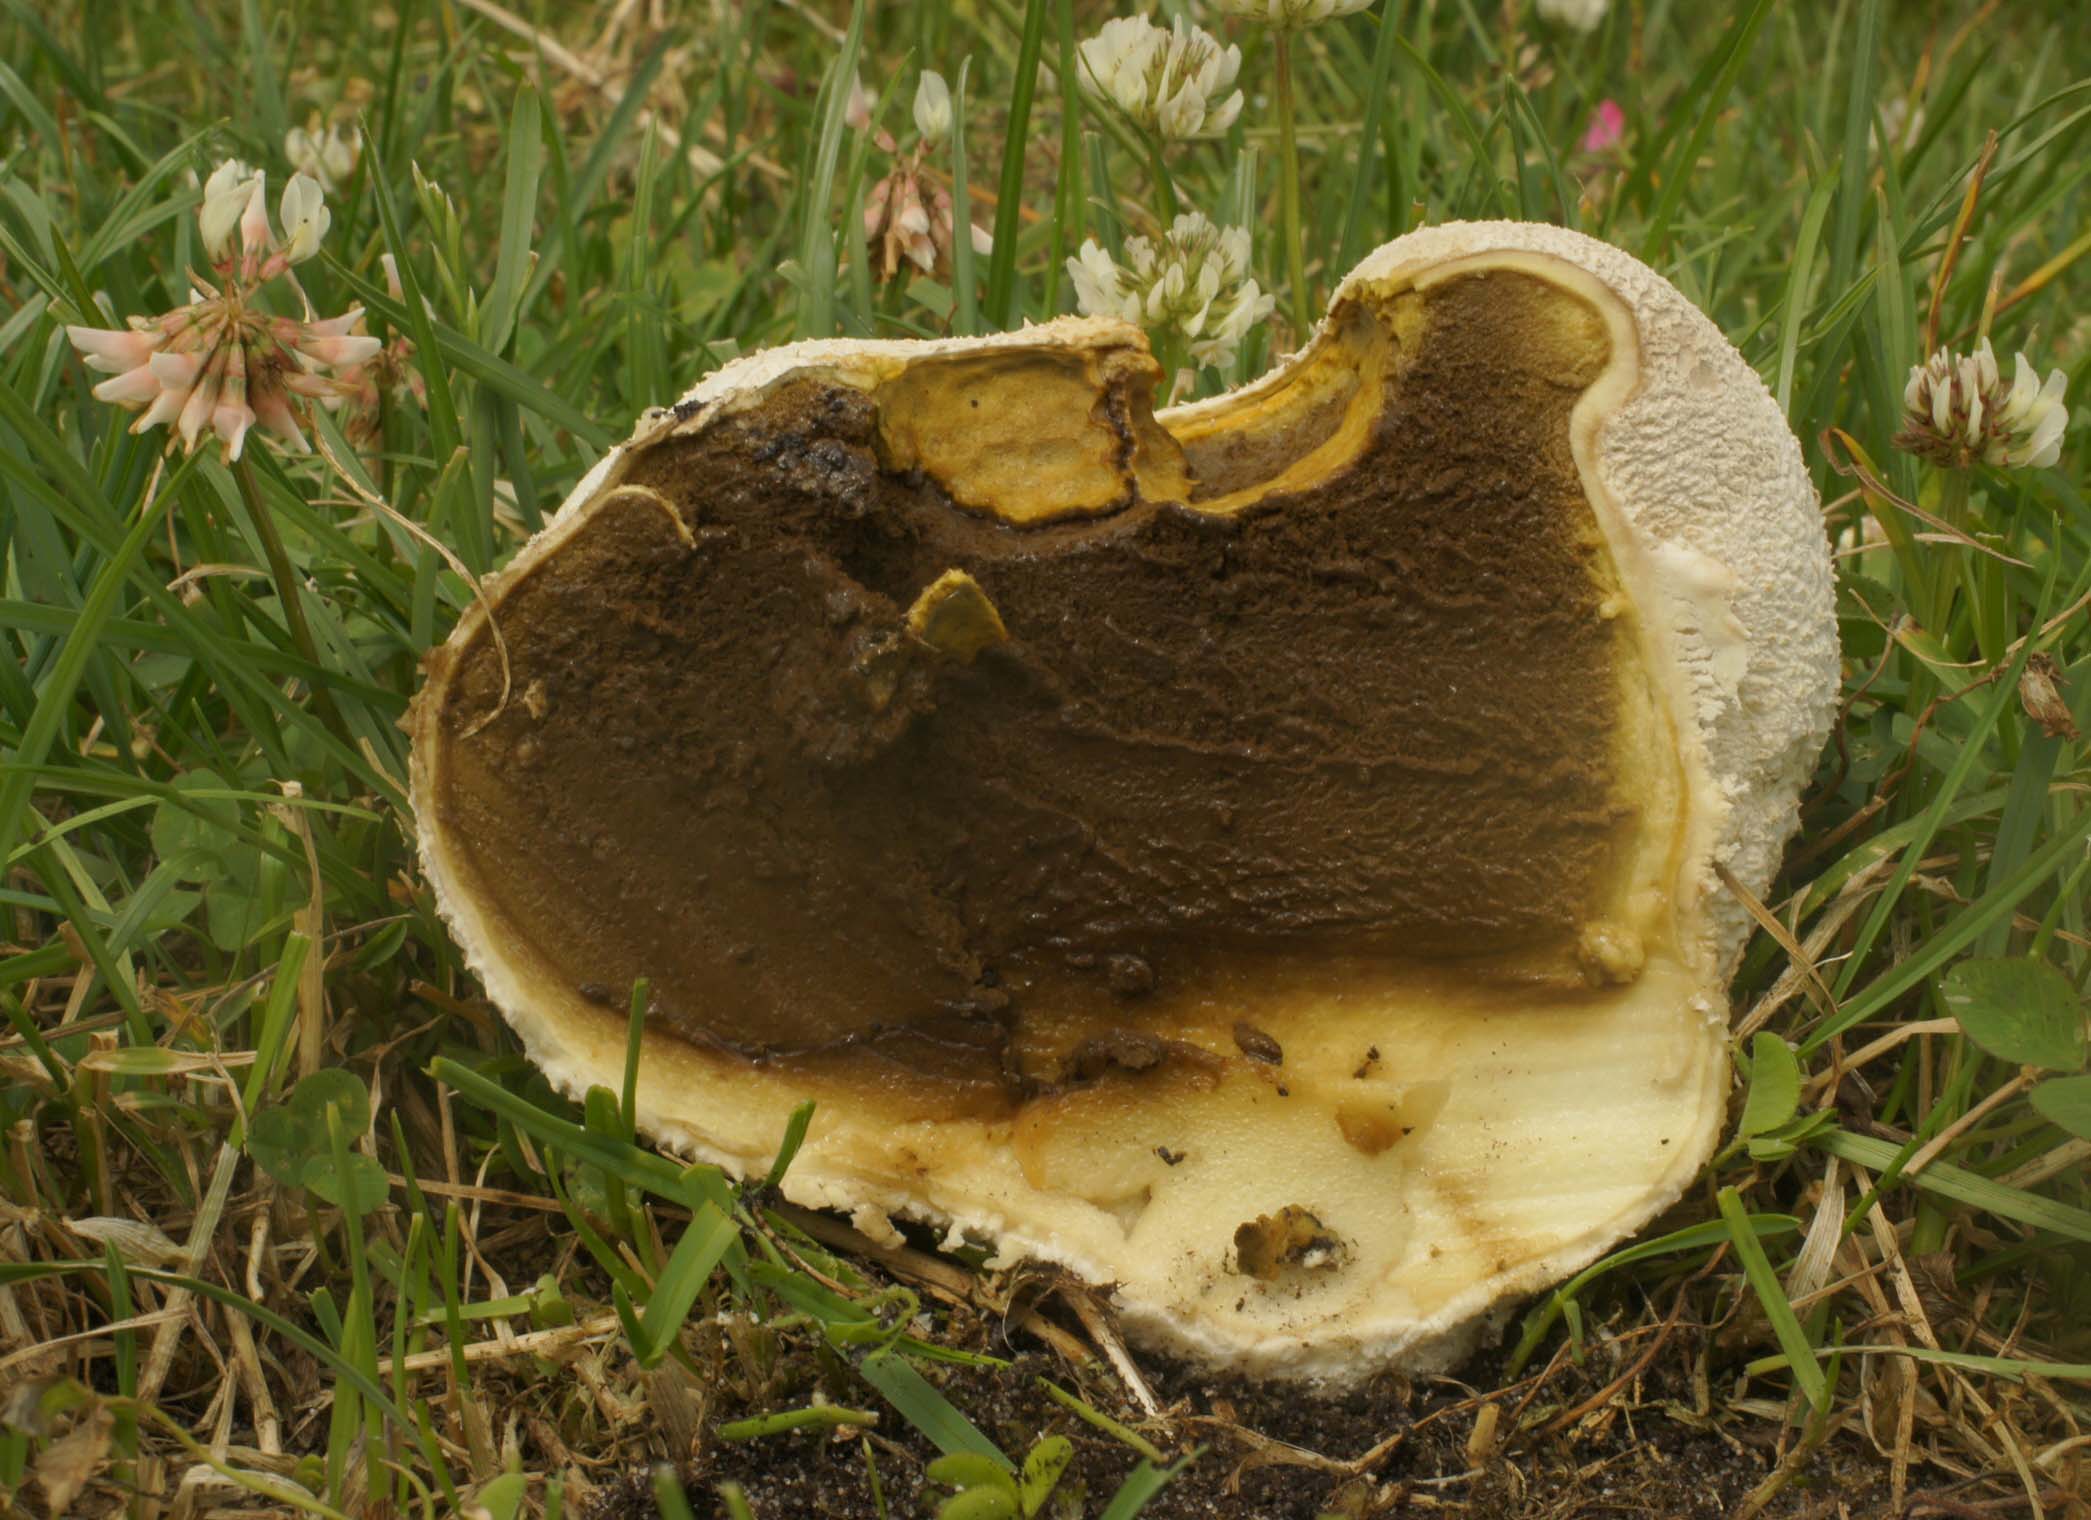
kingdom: Fungi
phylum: Basidiomycota
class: Agaricomycetes
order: Agaricales
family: Lycoperdaceae
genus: Bovistella
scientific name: Bovistella utriformis
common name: skællet støvbold
